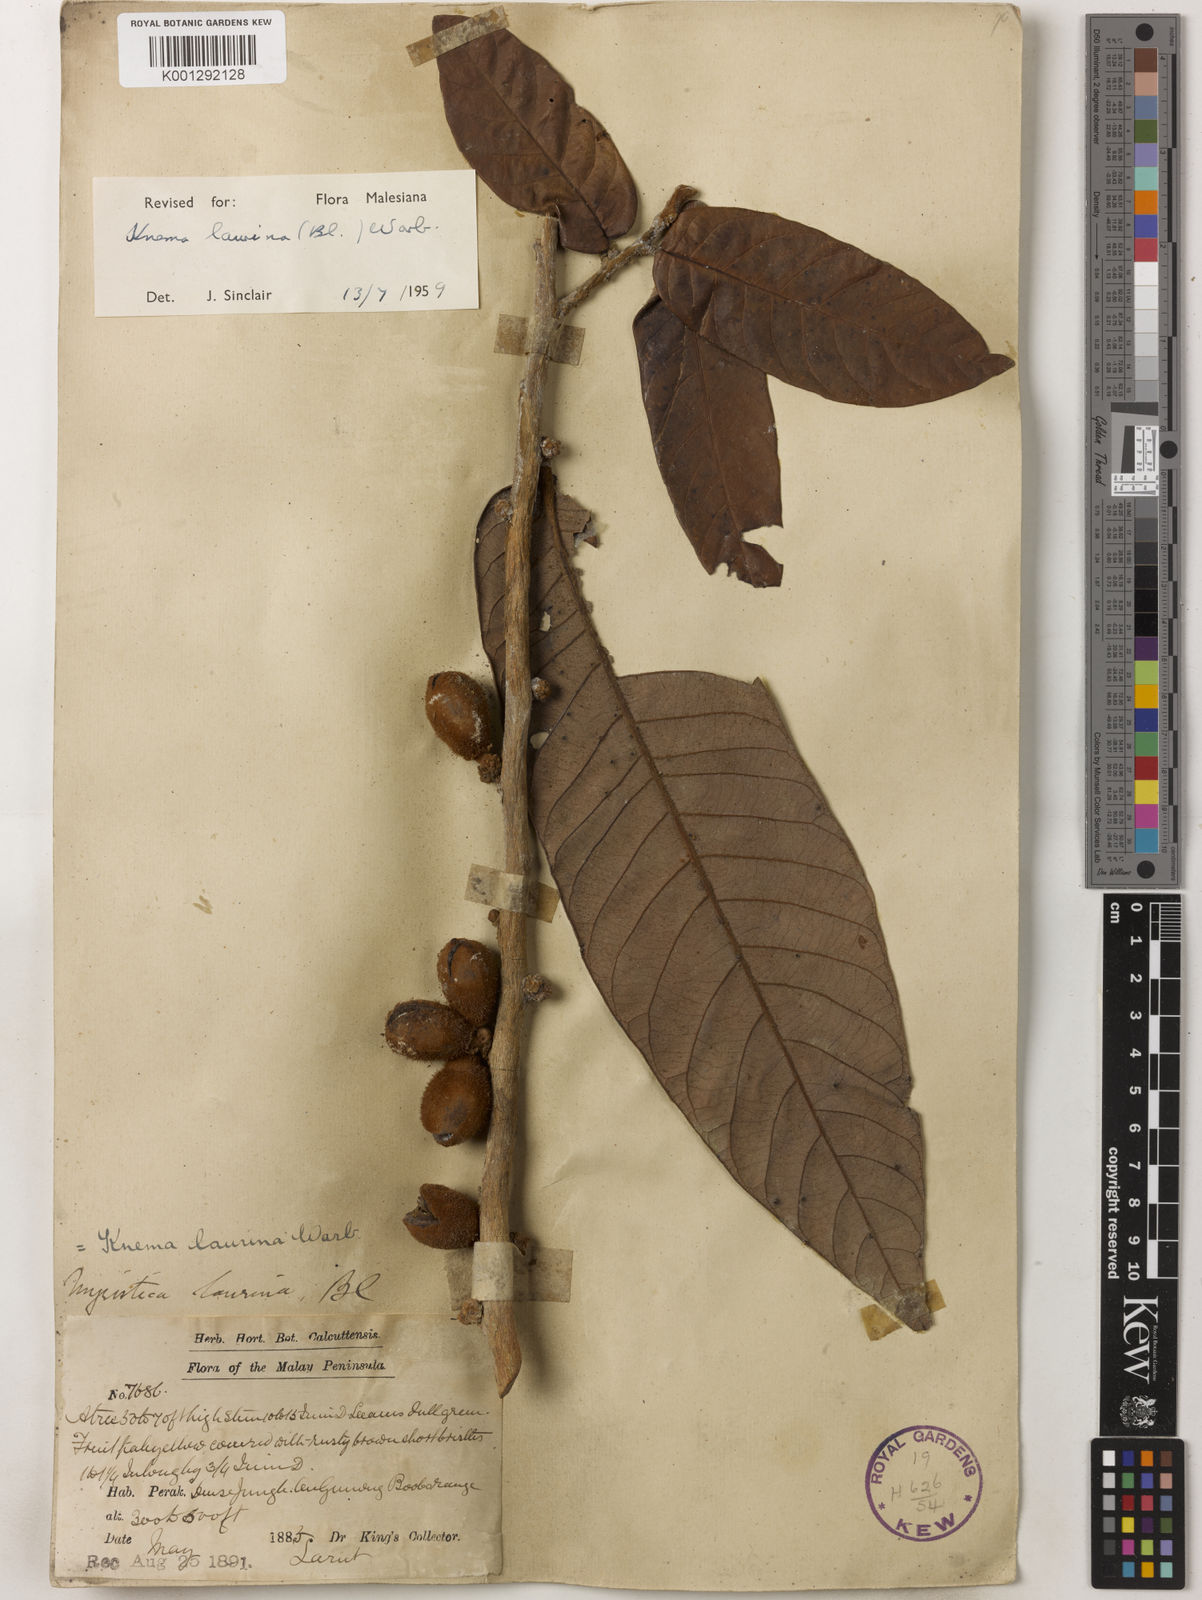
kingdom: Plantae
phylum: Tracheophyta
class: Magnoliopsida
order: Magnoliales
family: Myristicaceae
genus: Knema
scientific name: Knema laurina
